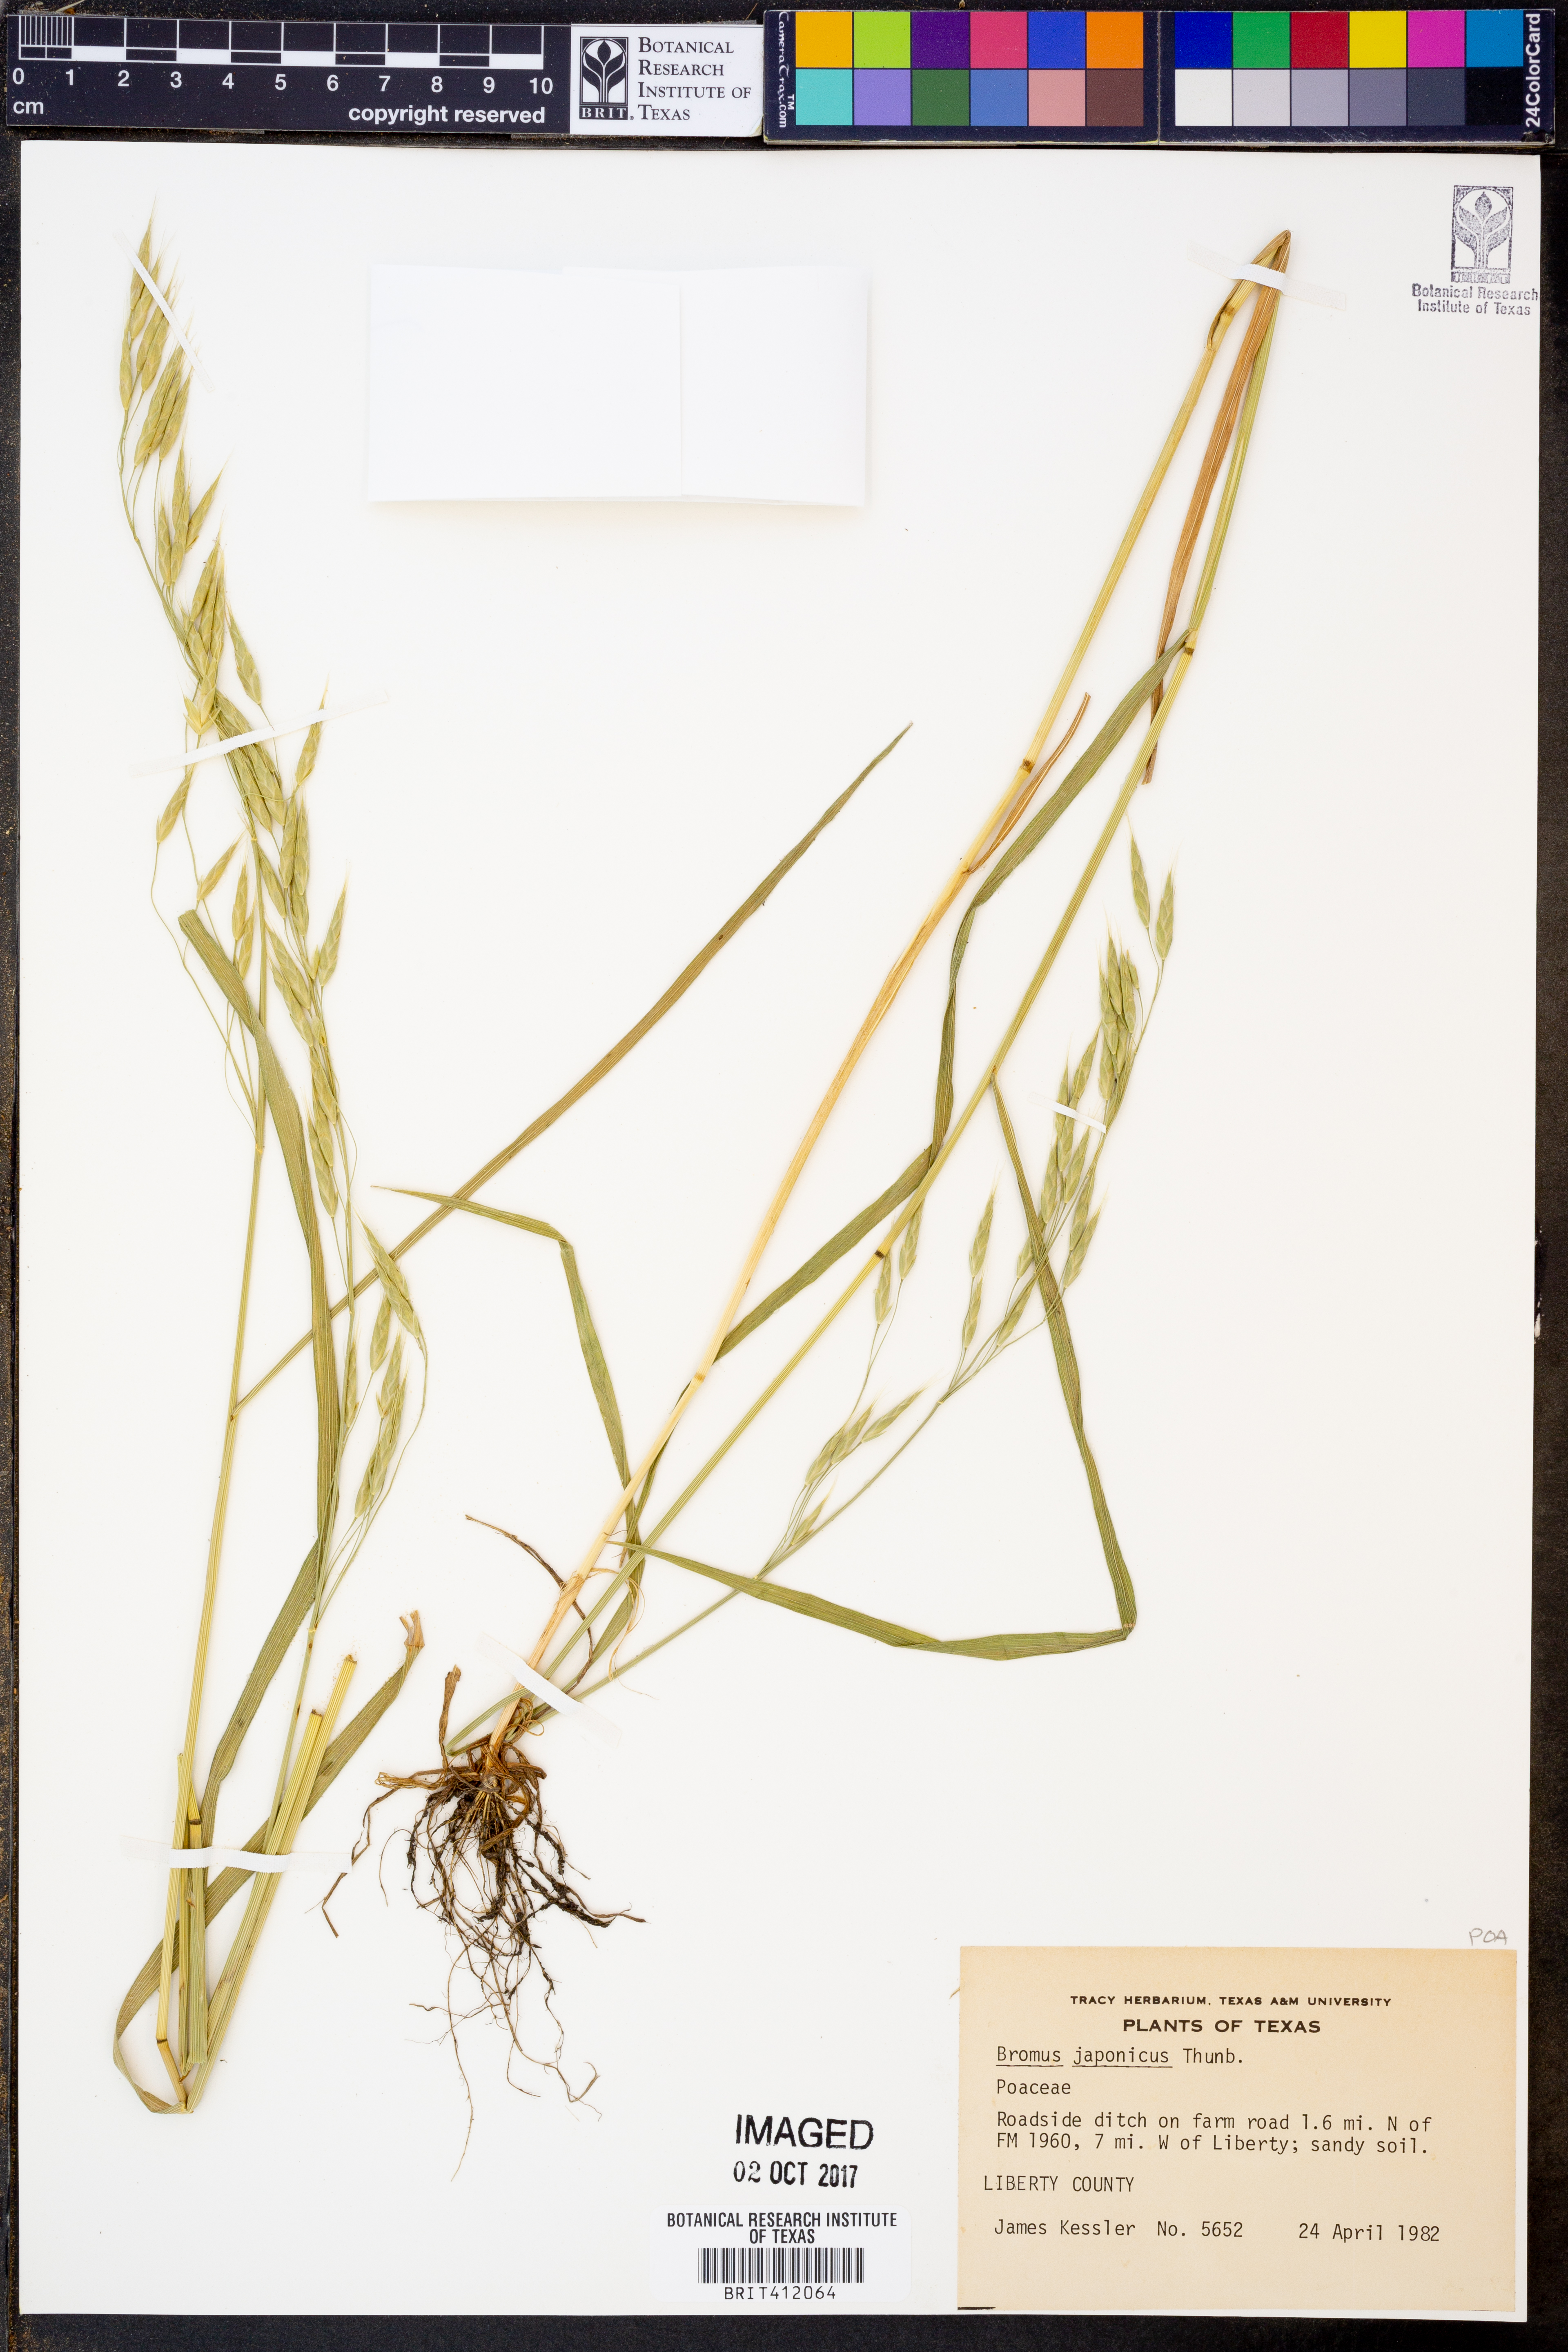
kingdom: Plantae
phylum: Tracheophyta
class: Liliopsida
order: Poales
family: Poaceae
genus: Bromus
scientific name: Bromus japonicus
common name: Japanese brome
